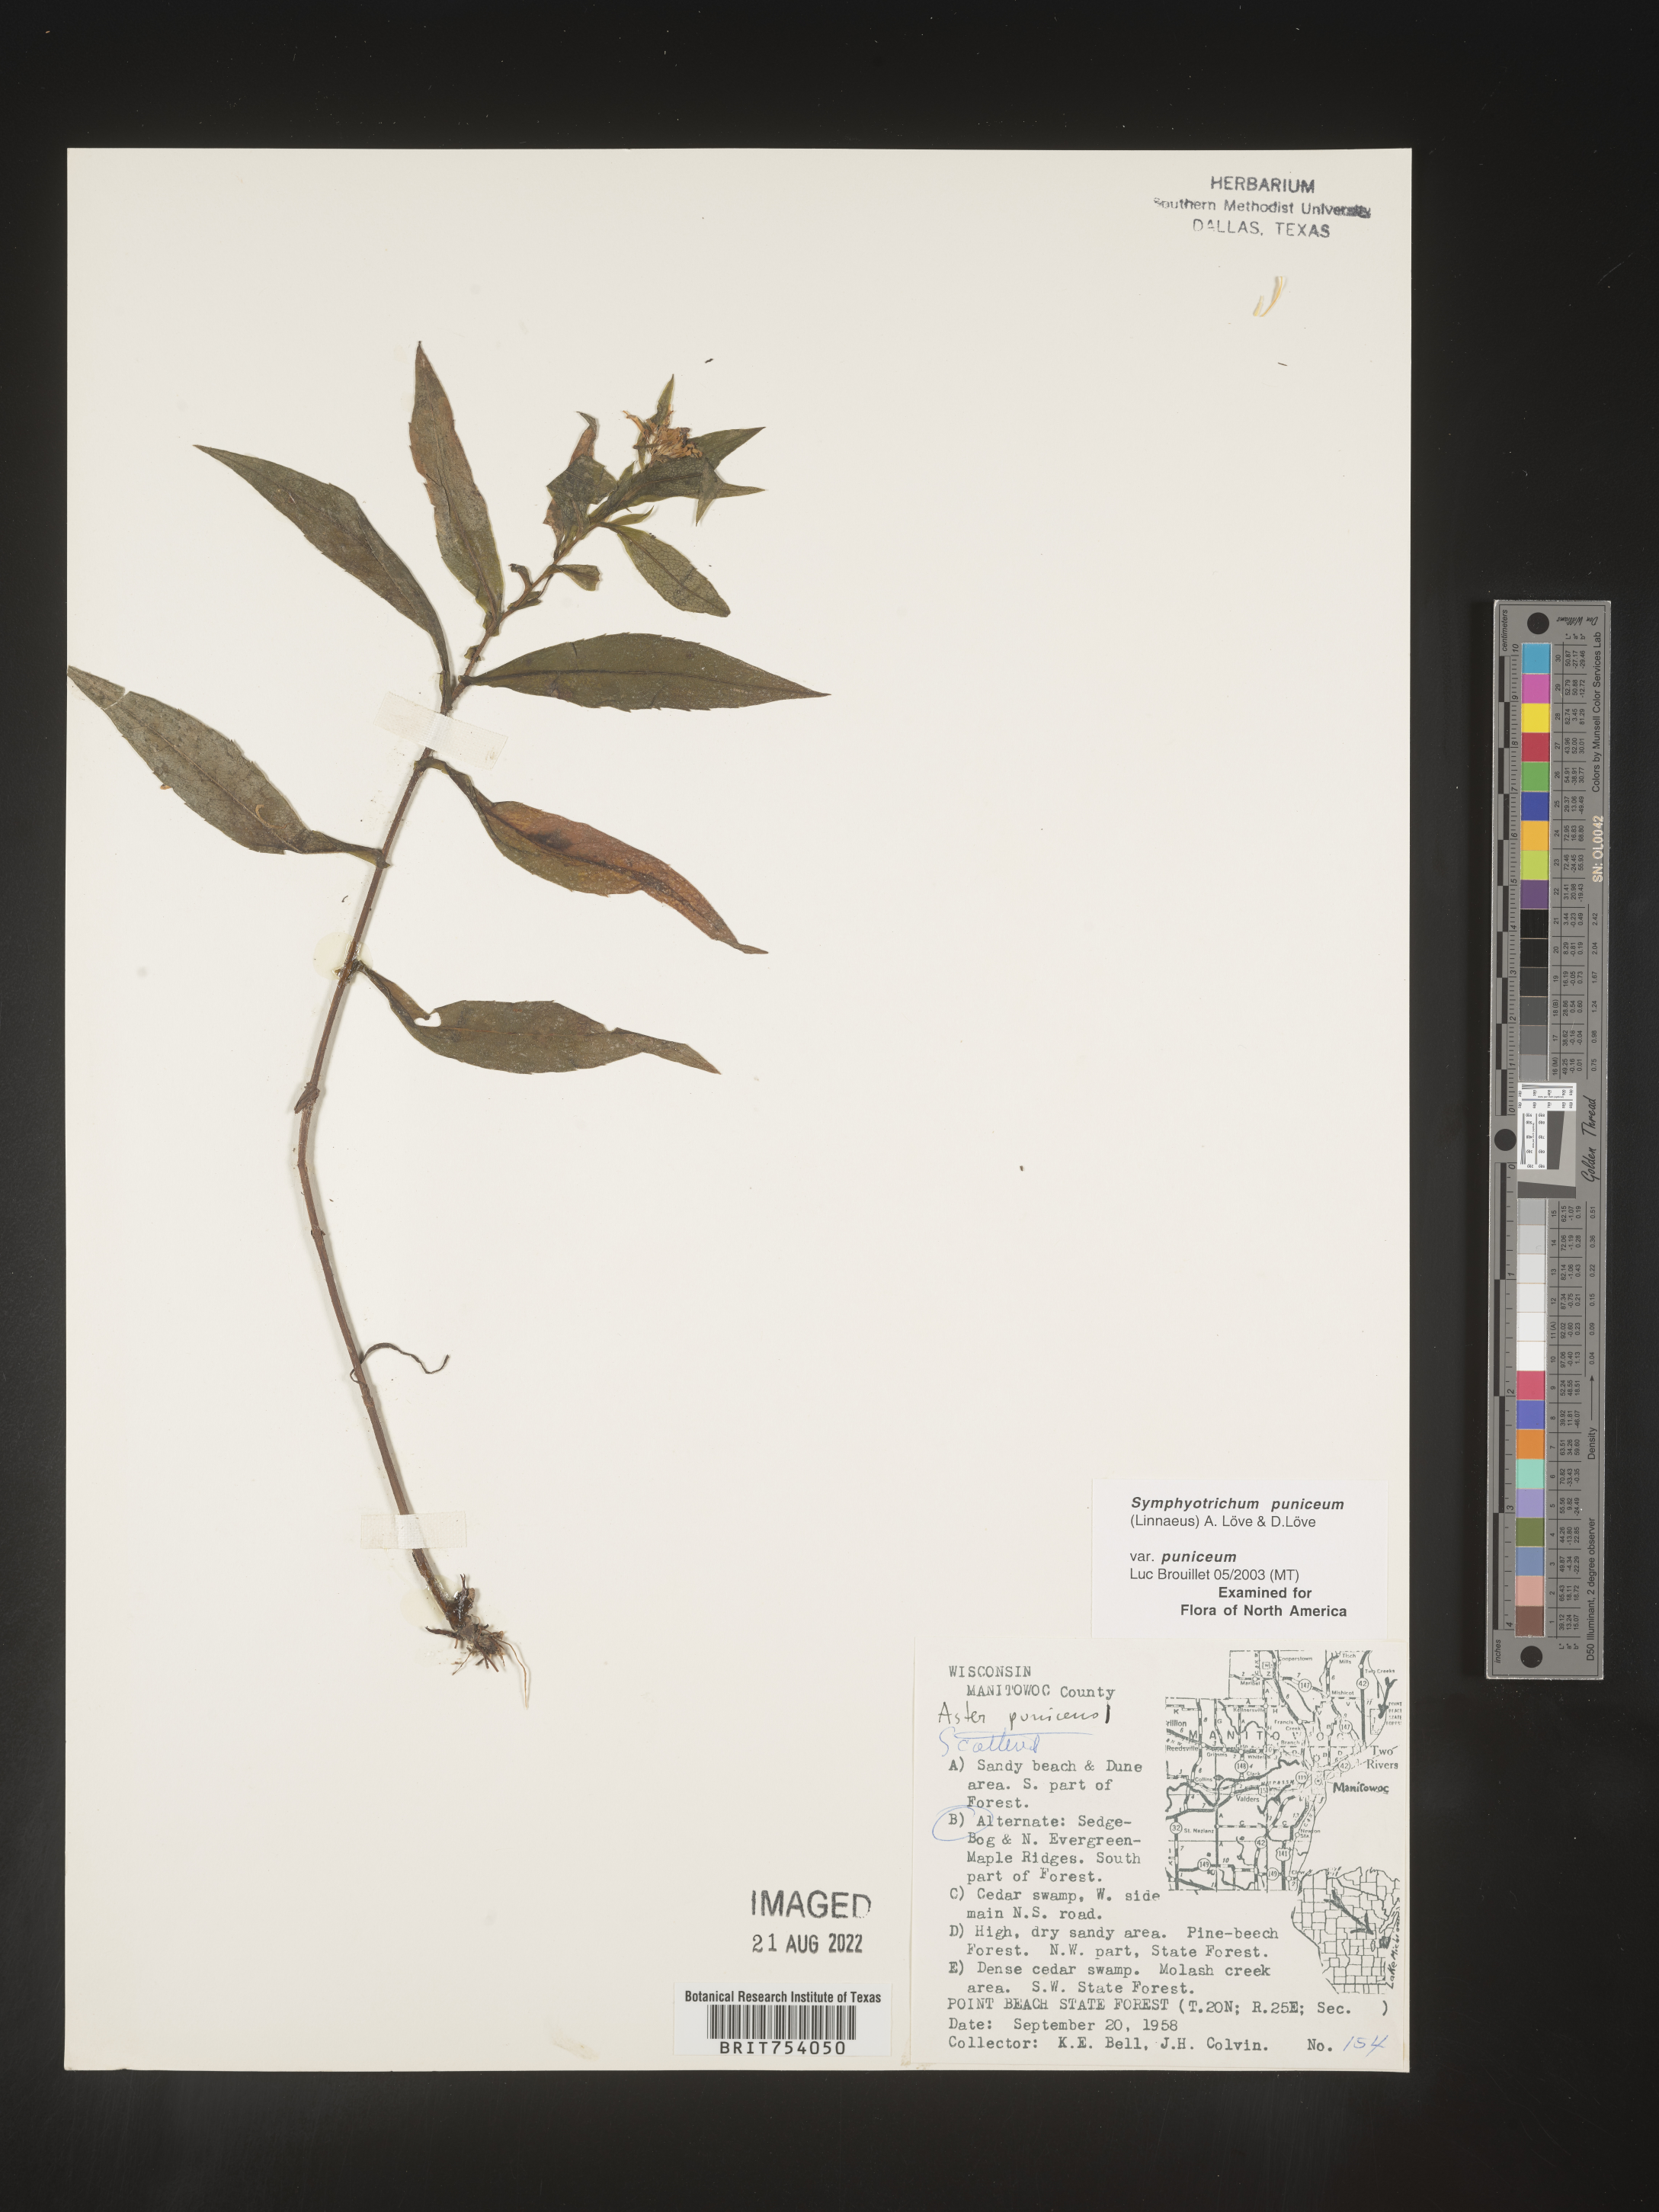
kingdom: Plantae
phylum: Tracheophyta
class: Magnoliopsida
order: Asterales
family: Asteraceae
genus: Symphyotrichum
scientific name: Symphyotrichum puniceum
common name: Bog aster
